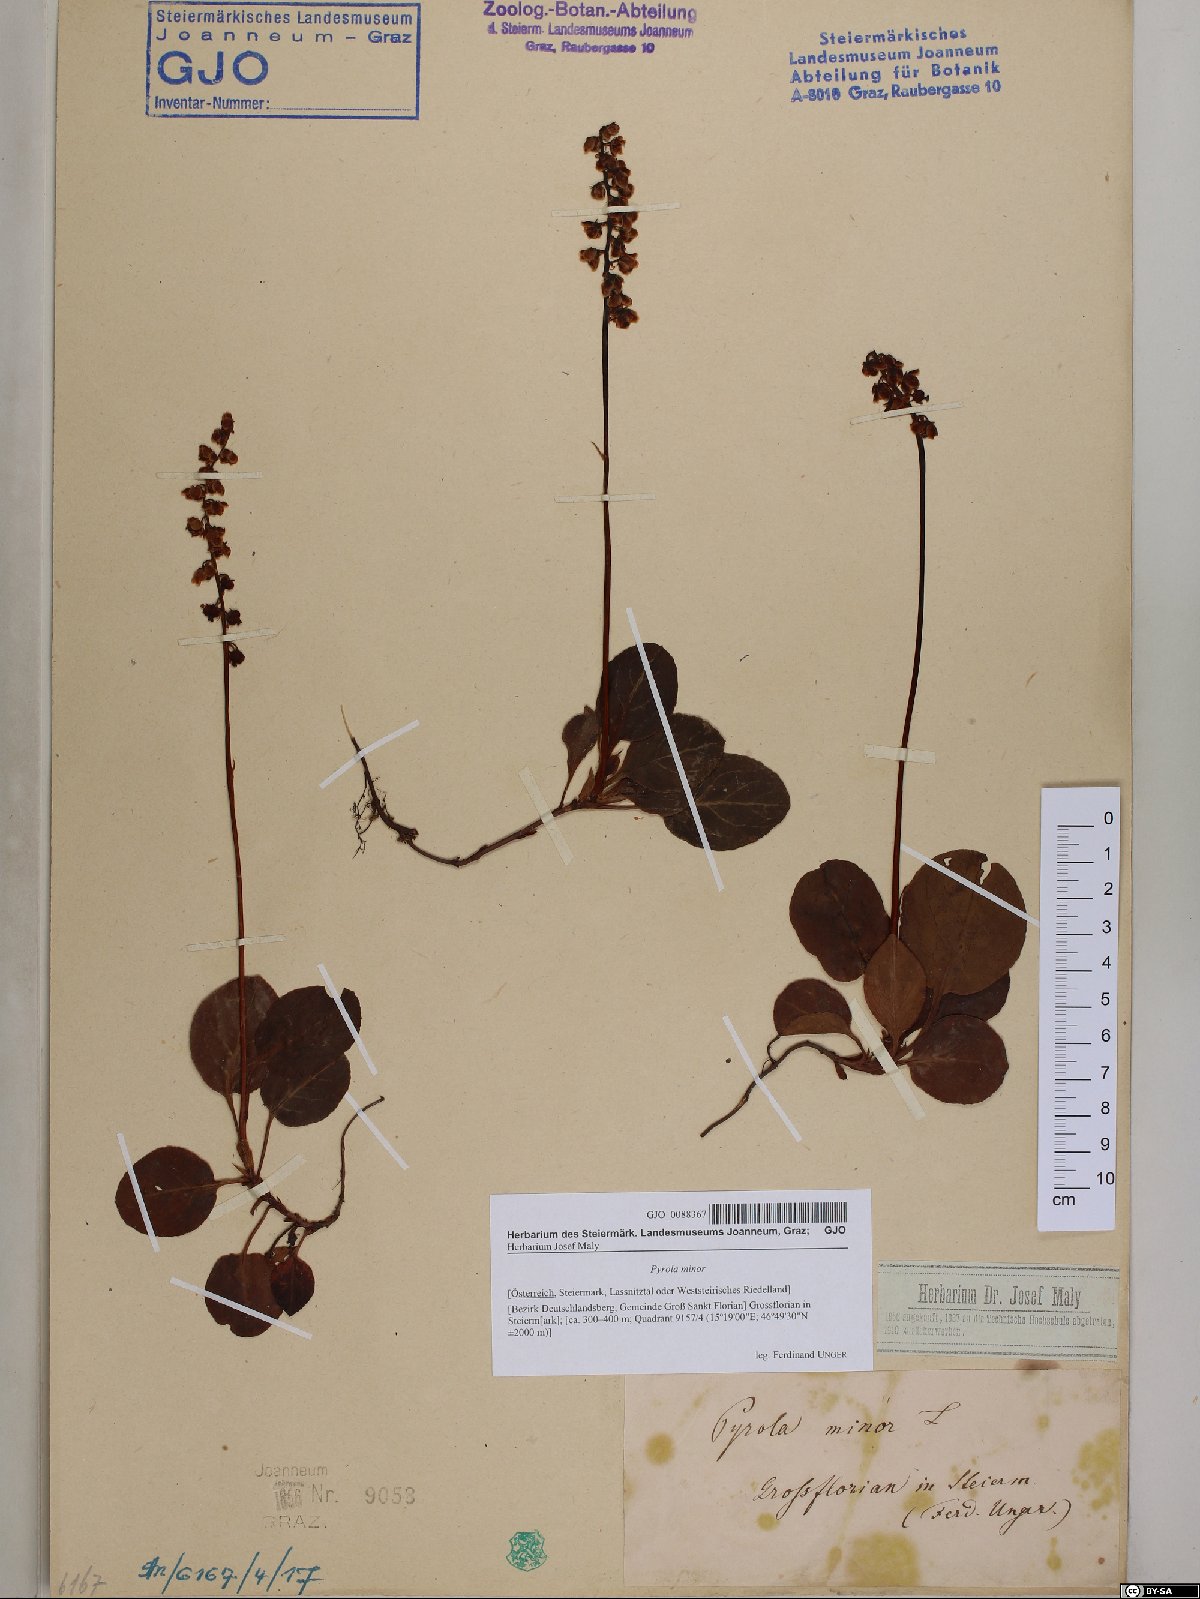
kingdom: Plantae
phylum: Tracheophyta
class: Magnoliopsida
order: Ericales
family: Ericaceae
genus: Pyrola
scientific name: Pyrola minor
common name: Common wintergreen
